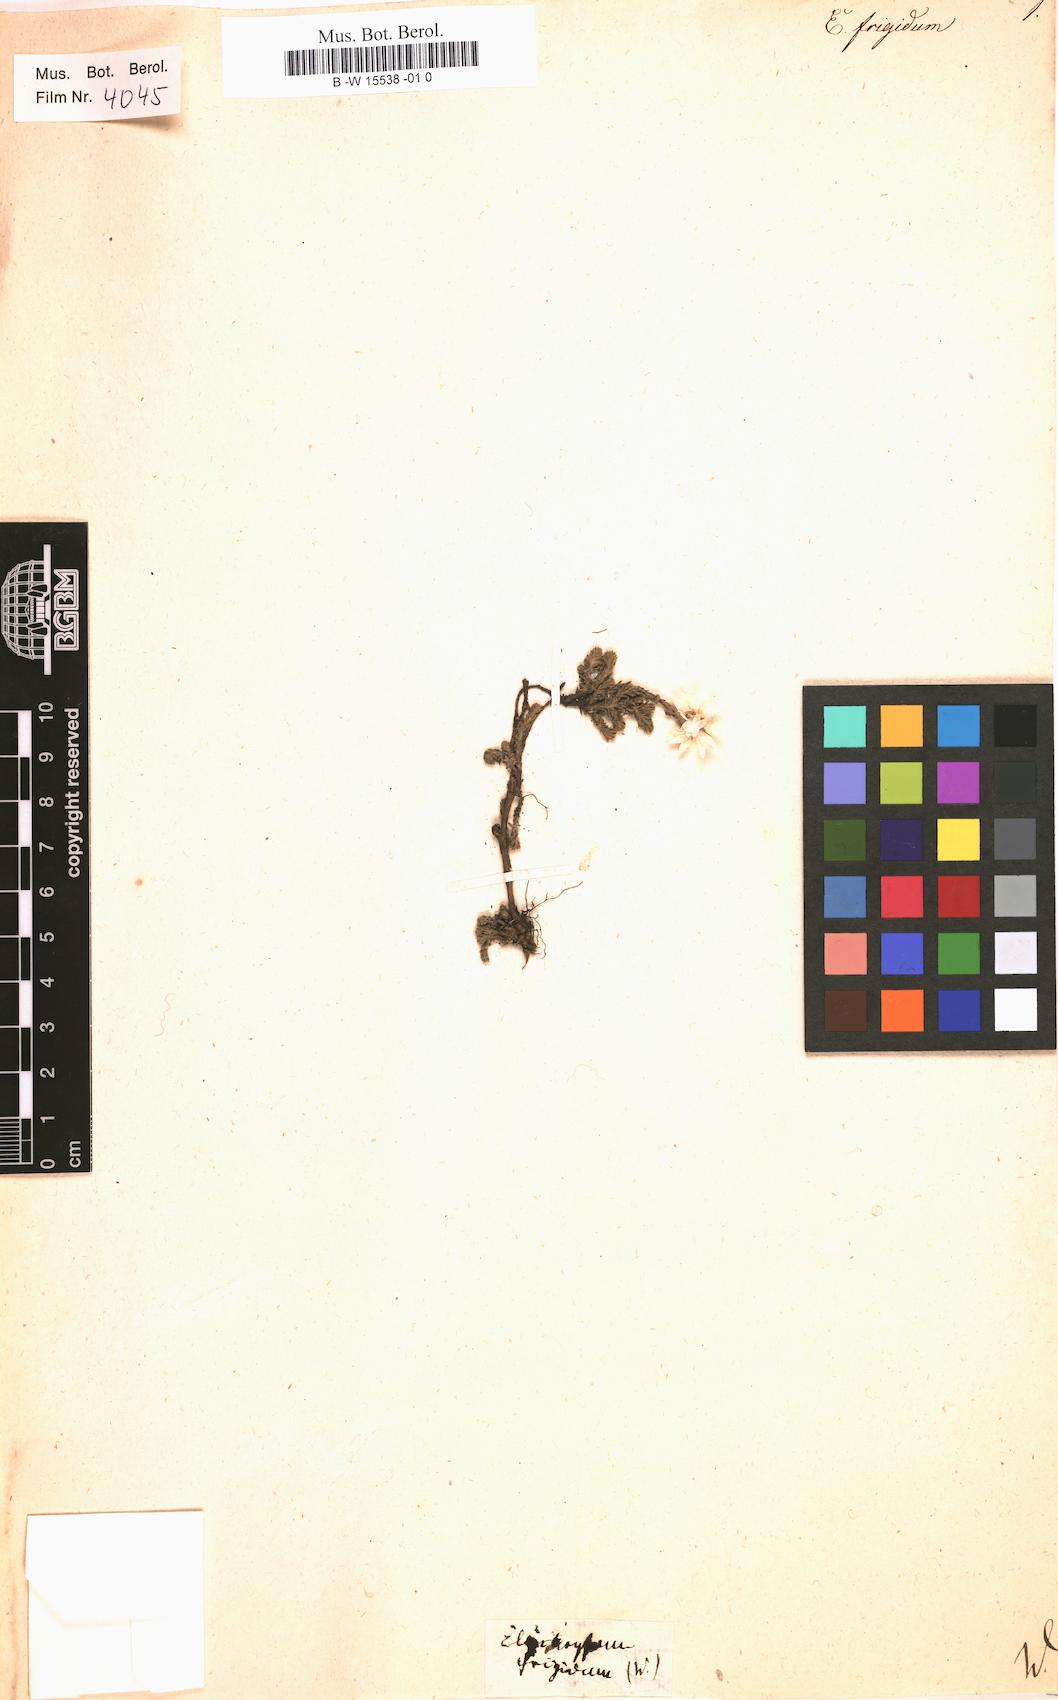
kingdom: Plantae
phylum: Tracheophyta
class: Magnoliopsida
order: Asterales
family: Asteraceae
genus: Helichrysum
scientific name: Helichrysum
